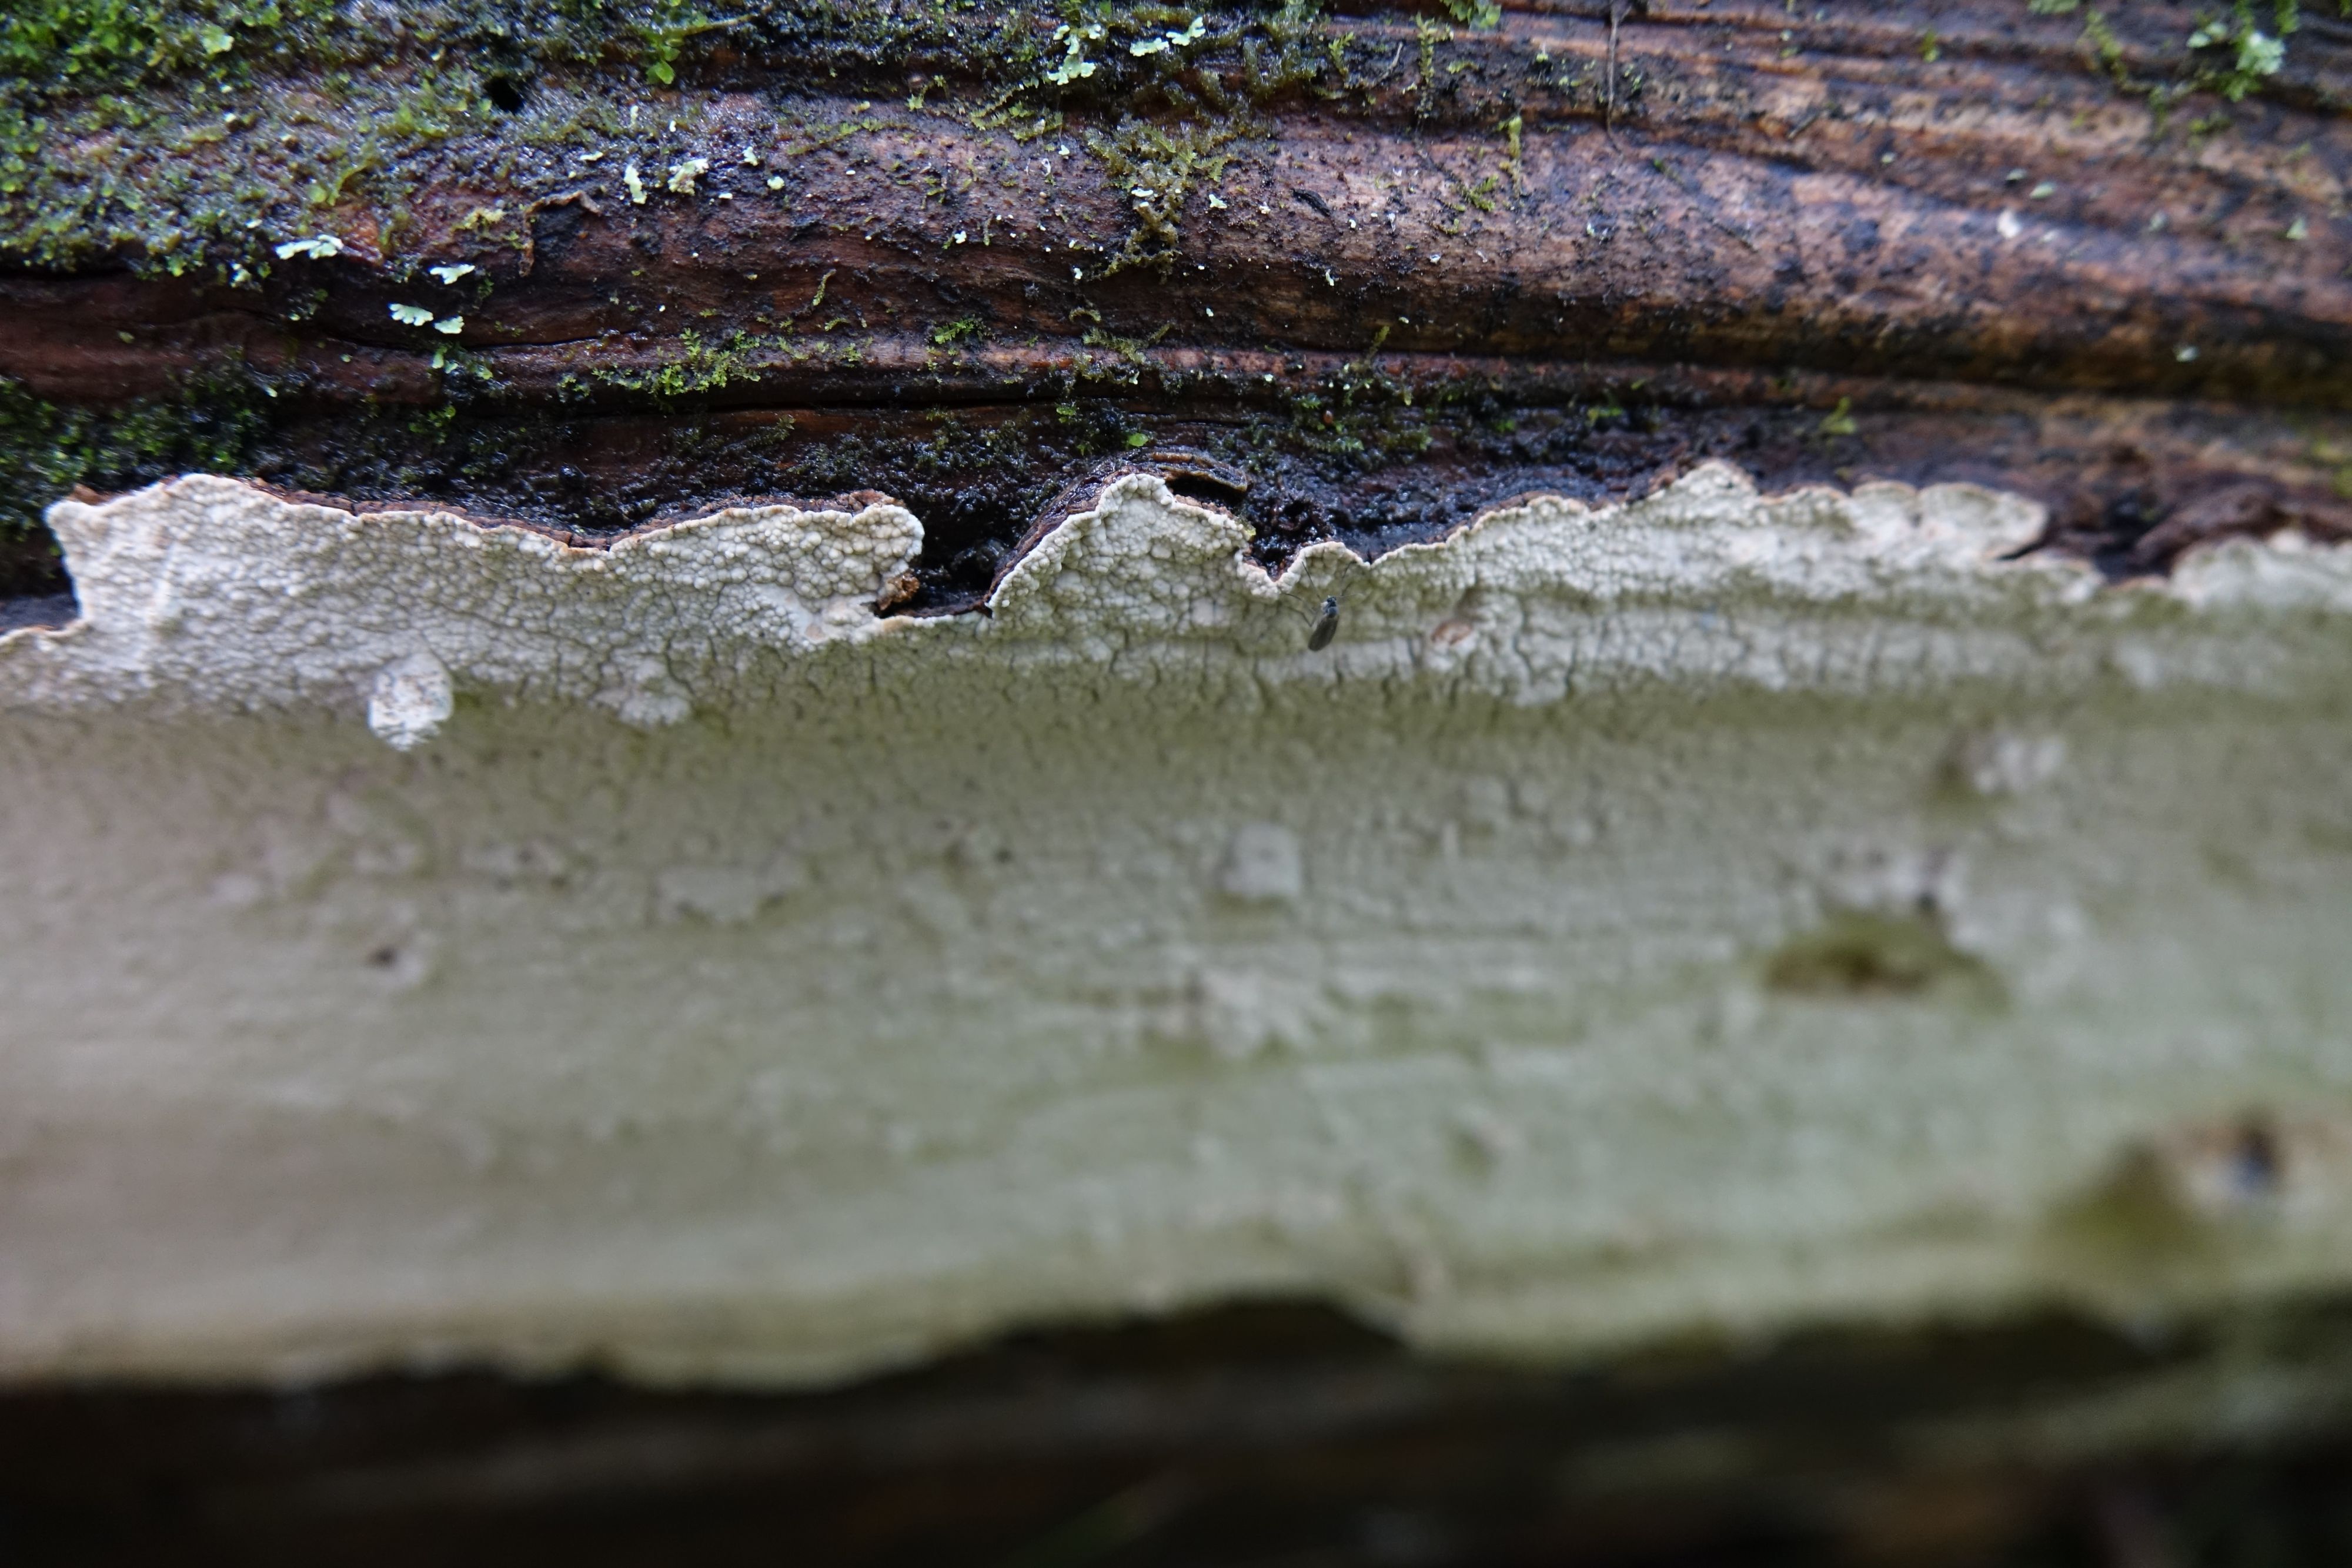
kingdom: Fungi
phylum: Basidiomycota
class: Agaricomycetes
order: Agaricales
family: Cystostereaceae
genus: Cystostereum
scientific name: Cystostereum murrayi
